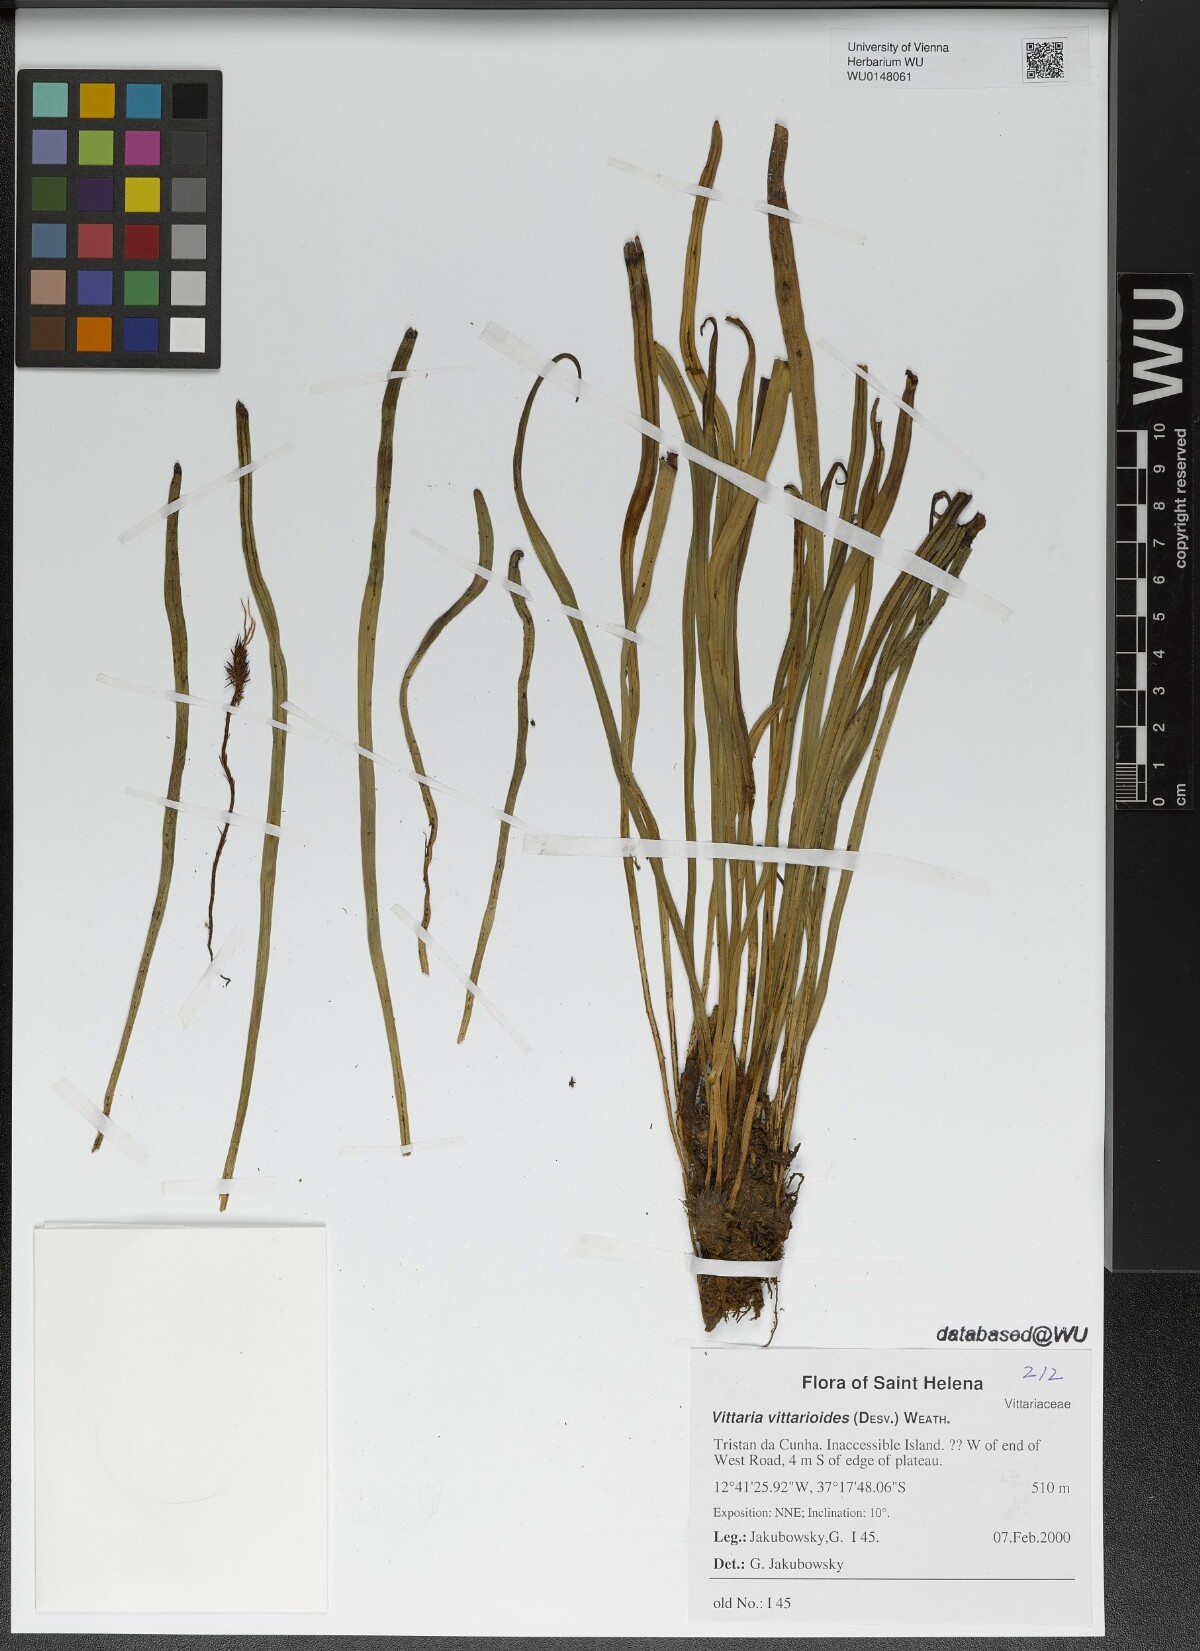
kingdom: Plantae
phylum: Tracheophyta
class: Polypodiopsida
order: Polypodiales
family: Pteridaceae
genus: Radiovittaria
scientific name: Radiovittaria ruiziana
